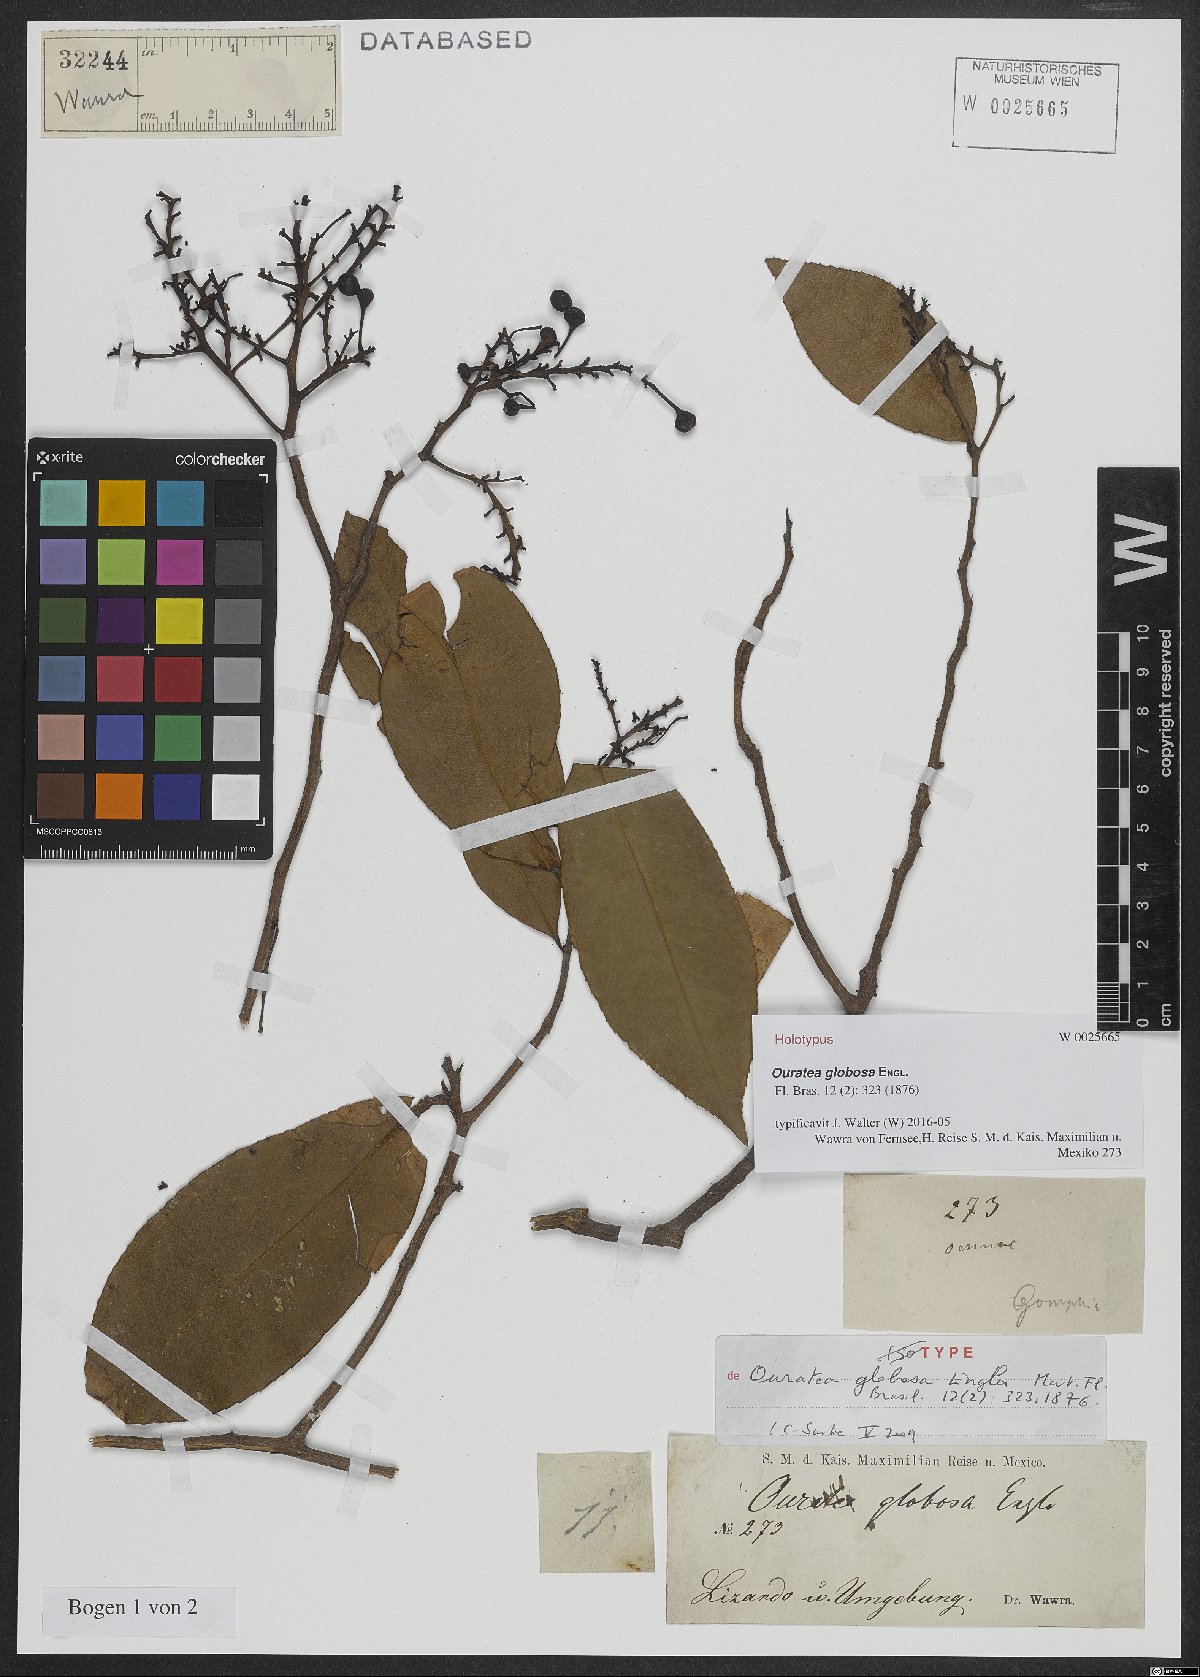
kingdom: Plantae
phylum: Tracheophyta
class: Magnoliopsida
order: Malpighiales
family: Ochnaceae
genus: Ouratea
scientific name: Ouratea globosa
